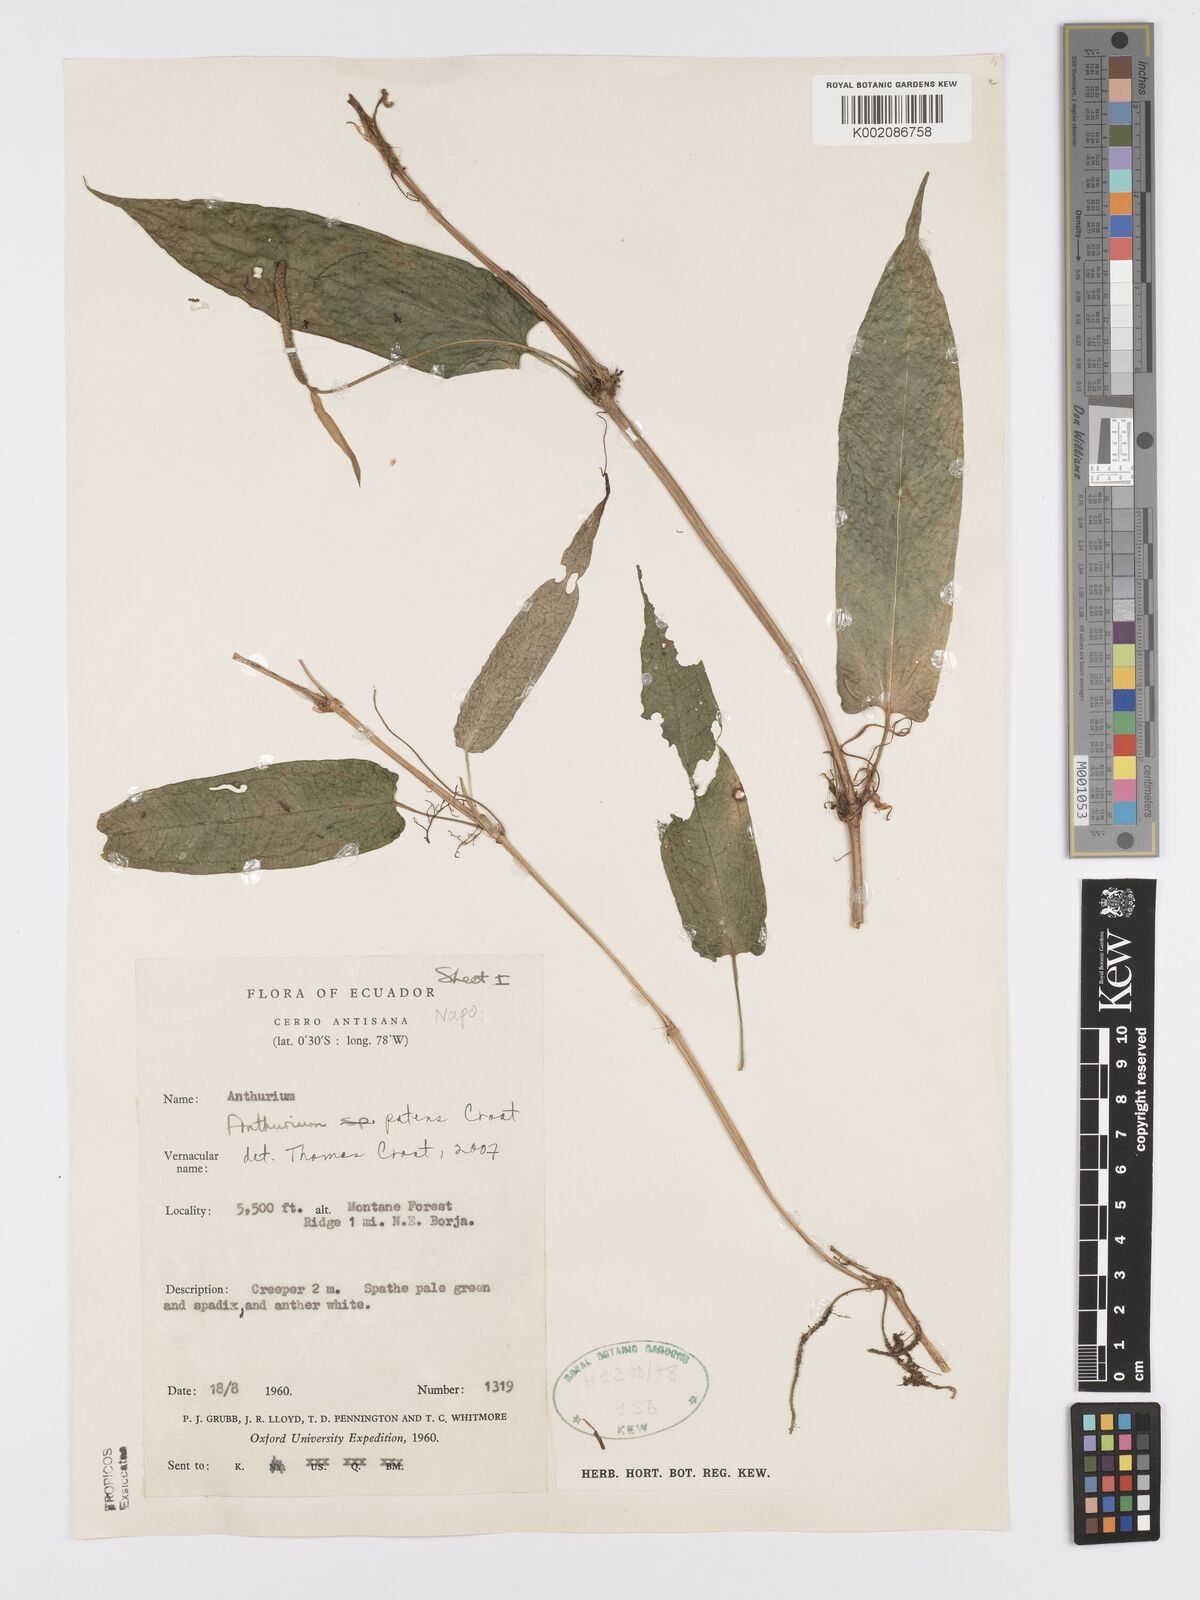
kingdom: Plantae
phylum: Tracheophyta
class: Liliopsida
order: Alismatales
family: Araceae
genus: Anthurium
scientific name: Anthurium patens
